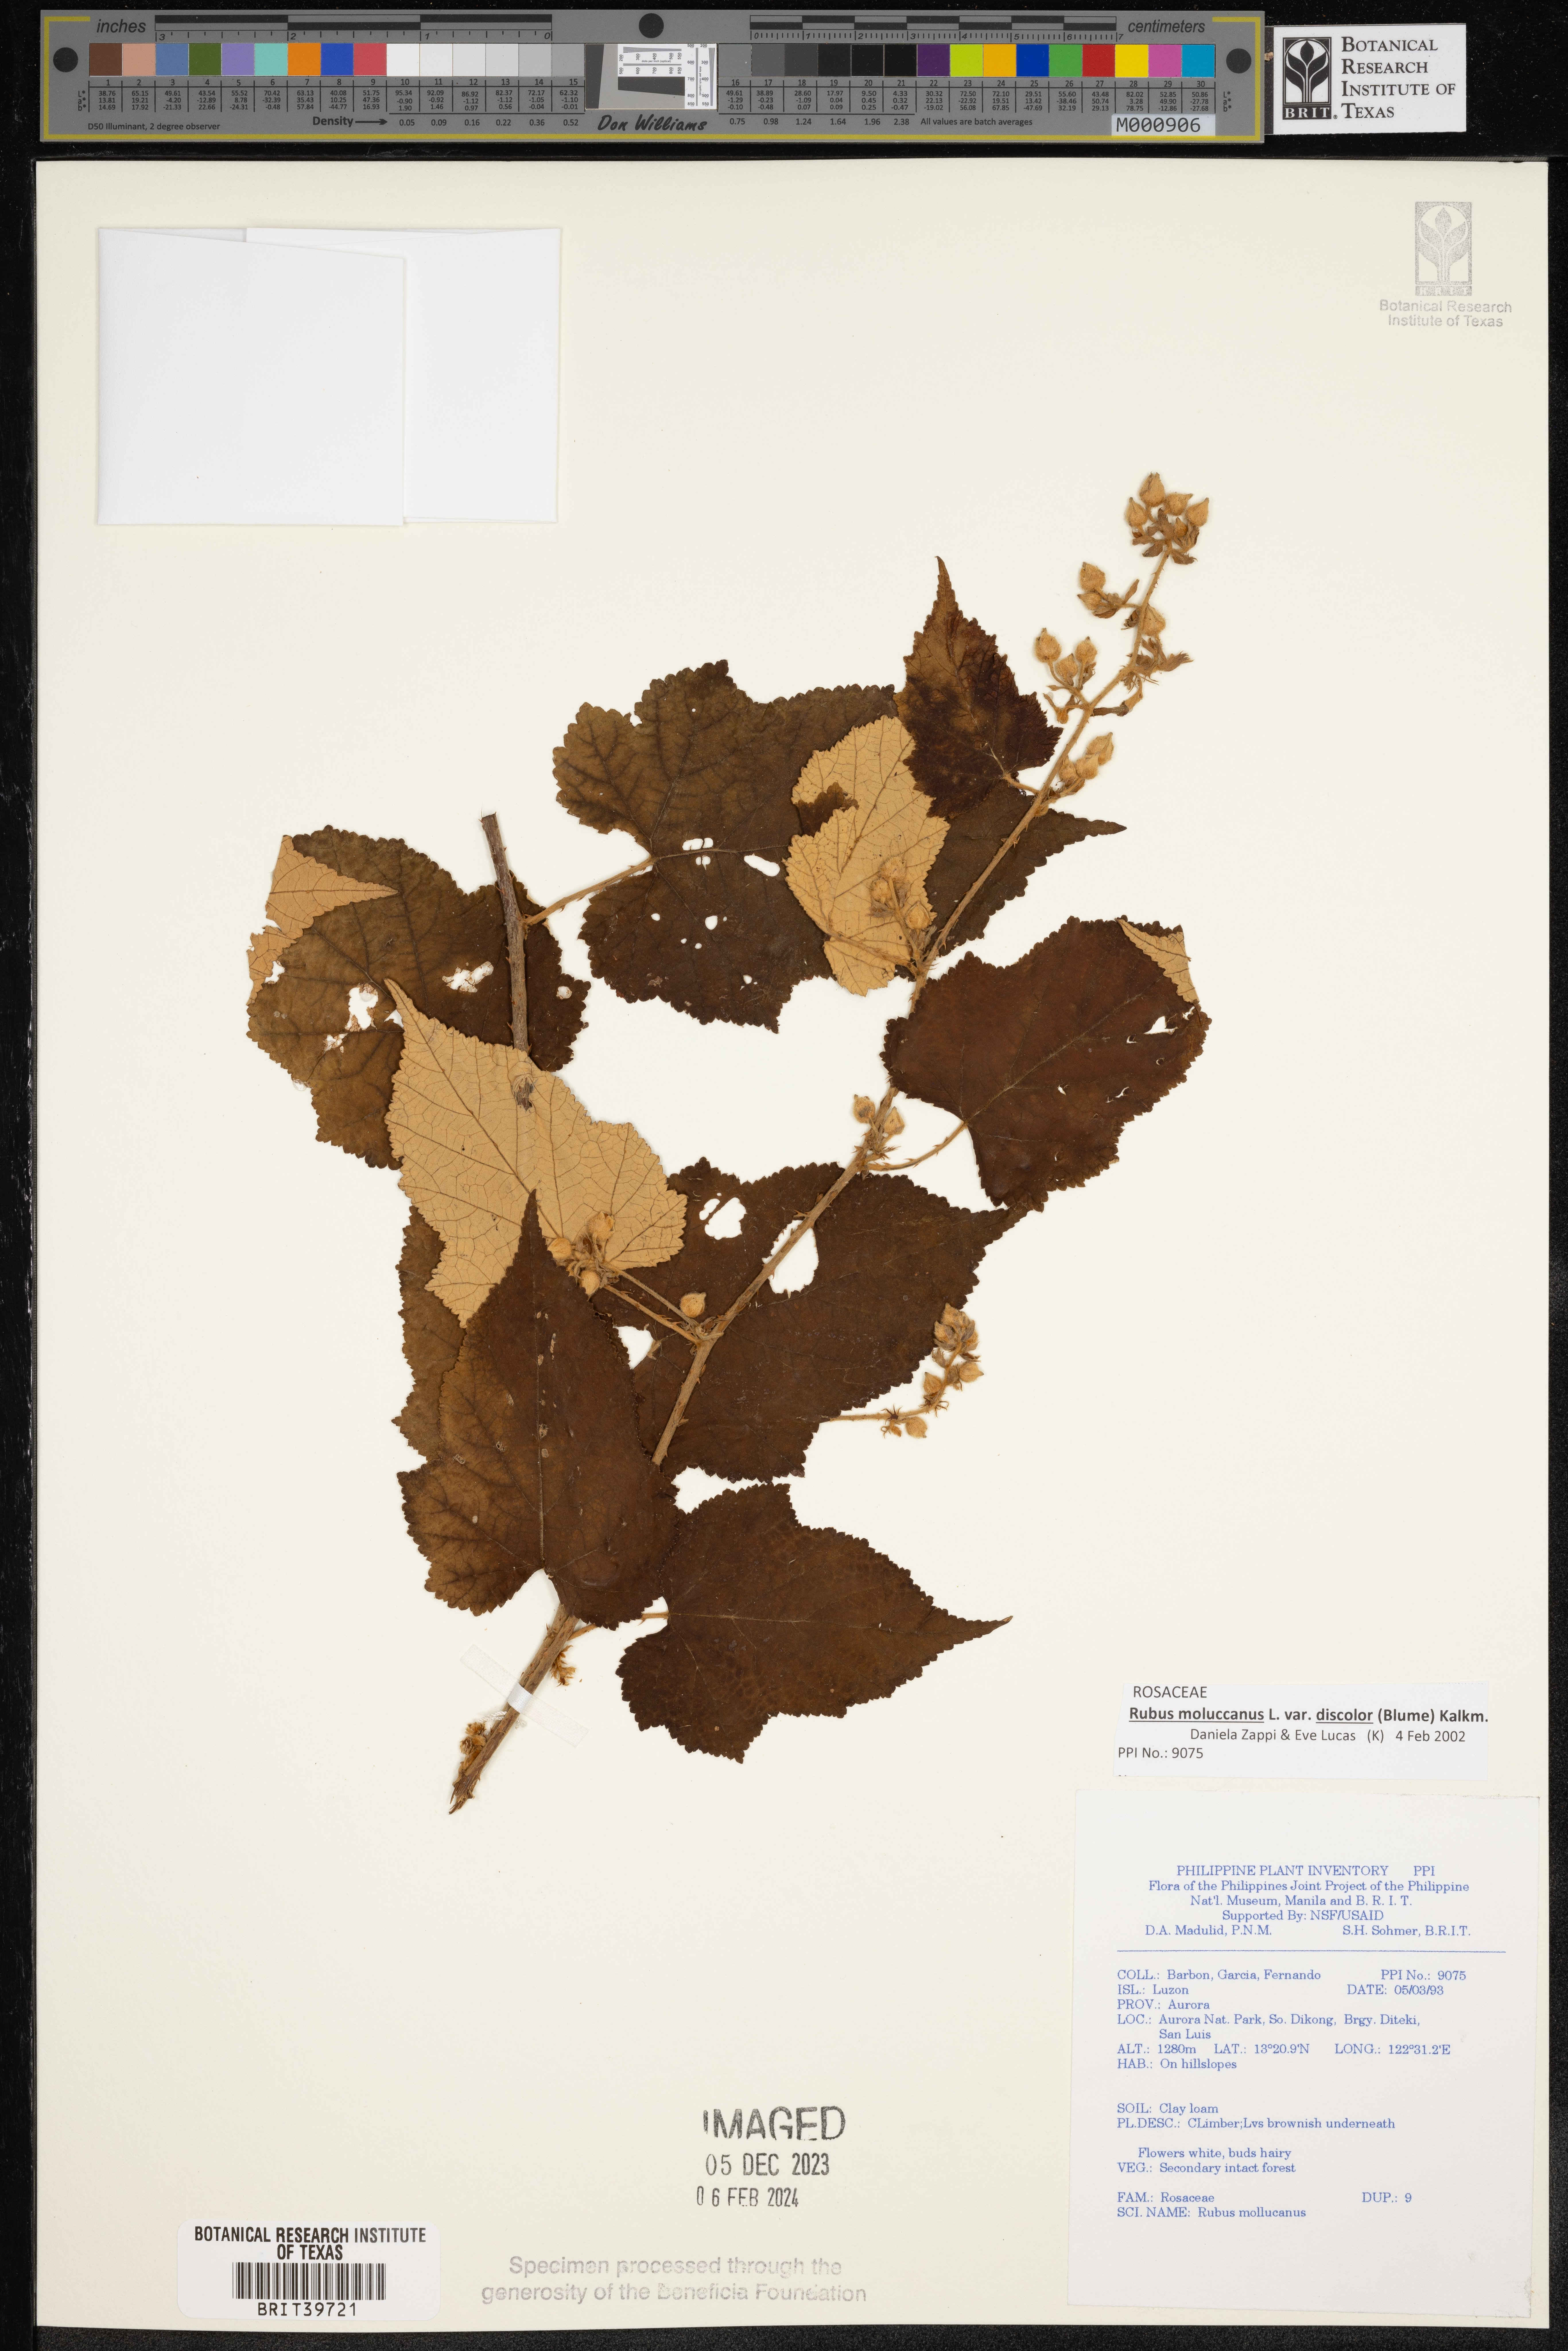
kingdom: Plantae
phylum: Tracheophyta
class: Magnoliopsida
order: Rosales
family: Rosaceae
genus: Rubus
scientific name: Rubus moluccanus
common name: Wild raspberry
